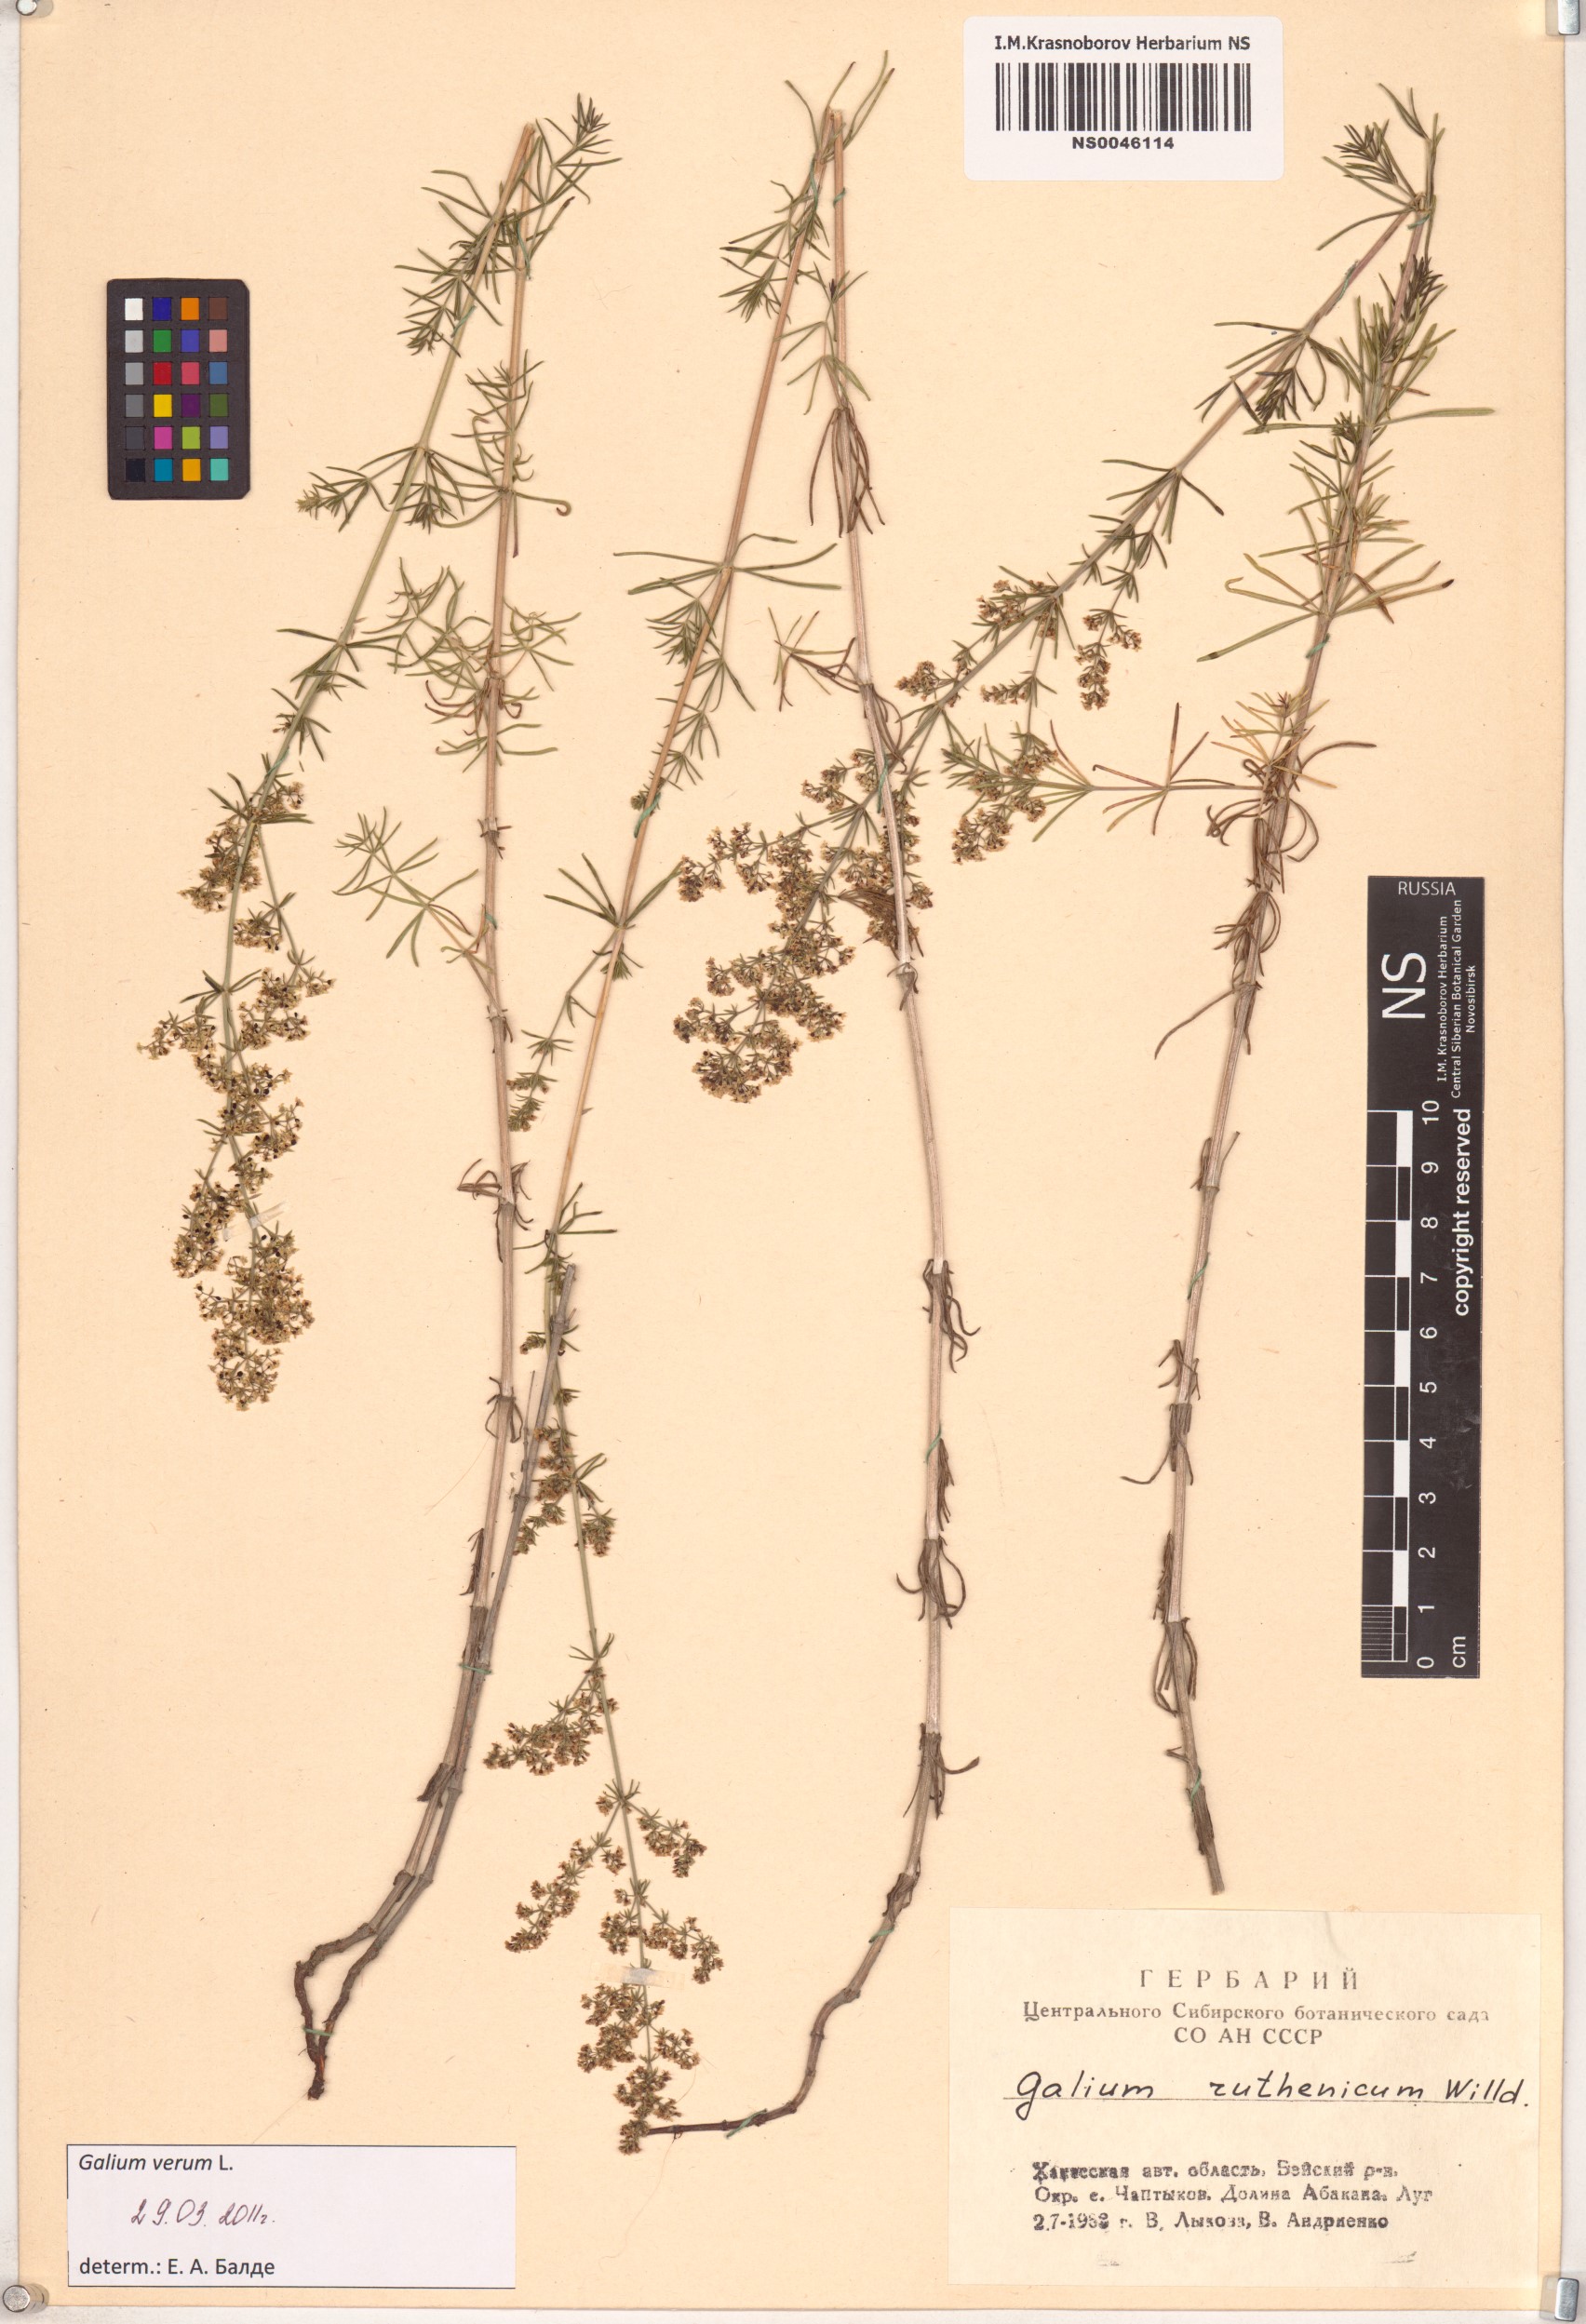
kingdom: Plantae
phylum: Tracheophyta
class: Magnoliopsida
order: Gentianales
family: Rubiaceae
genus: Galium
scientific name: Galium verum
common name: Lady's bedstraw
